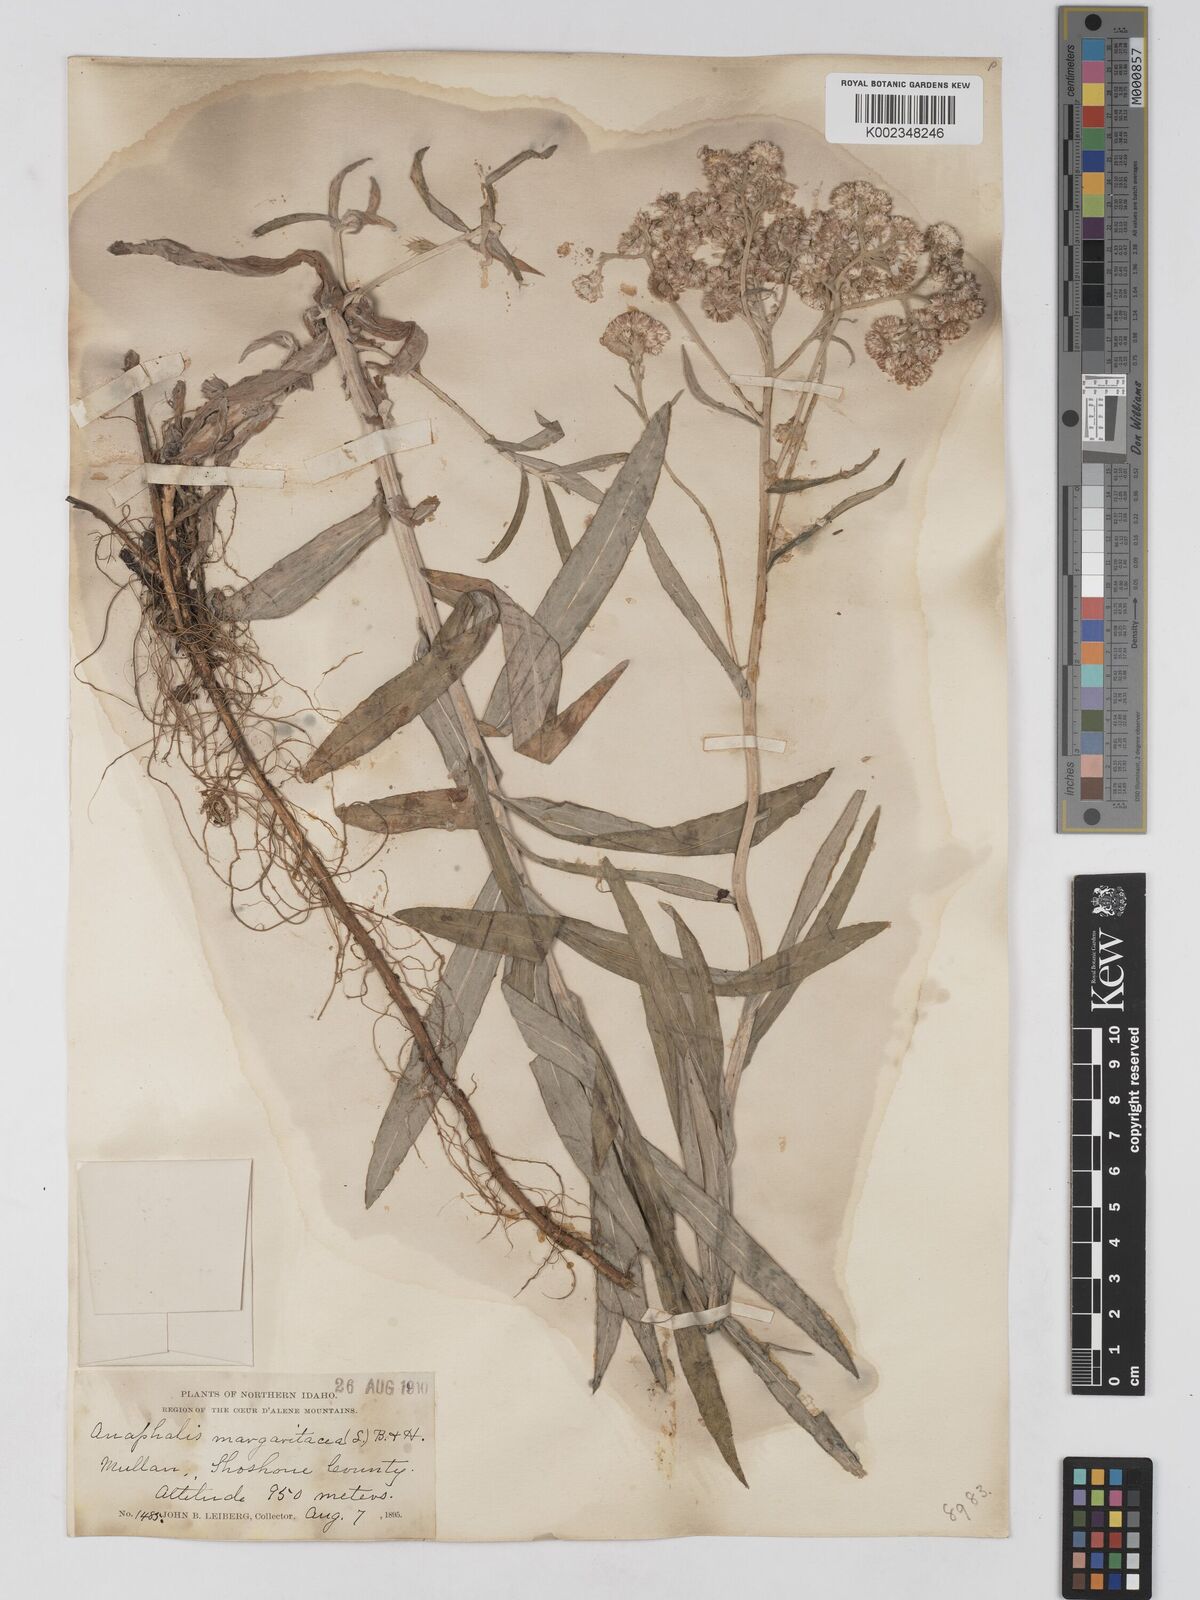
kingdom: Plantae
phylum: Tracheophyta
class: Magnoliopsida
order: Asterales
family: Asteraceae
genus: Anaphalis
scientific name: Anaphalis margaritacea
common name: Pearly everlasting
